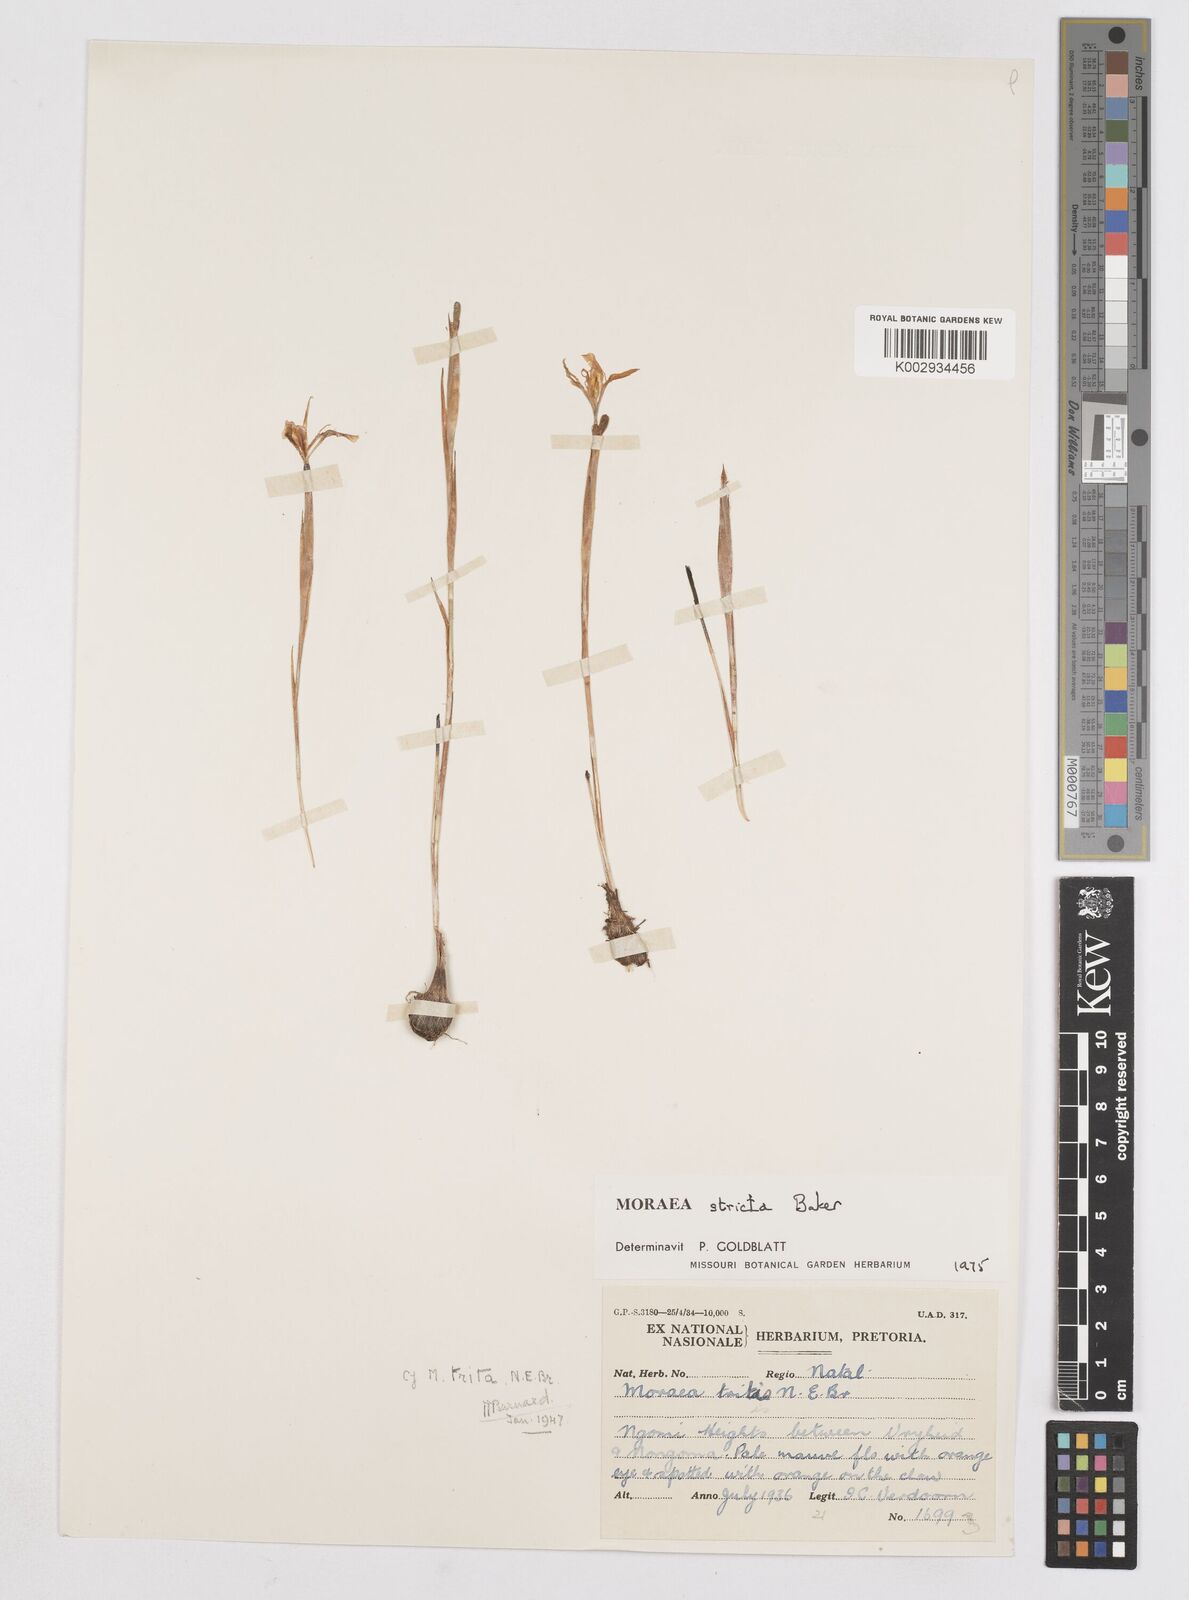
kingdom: Plantae
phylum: Tracheophyta
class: Liliopsida
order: Asparagales
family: Iridaceae
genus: Moraea
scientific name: Moraea stricta
